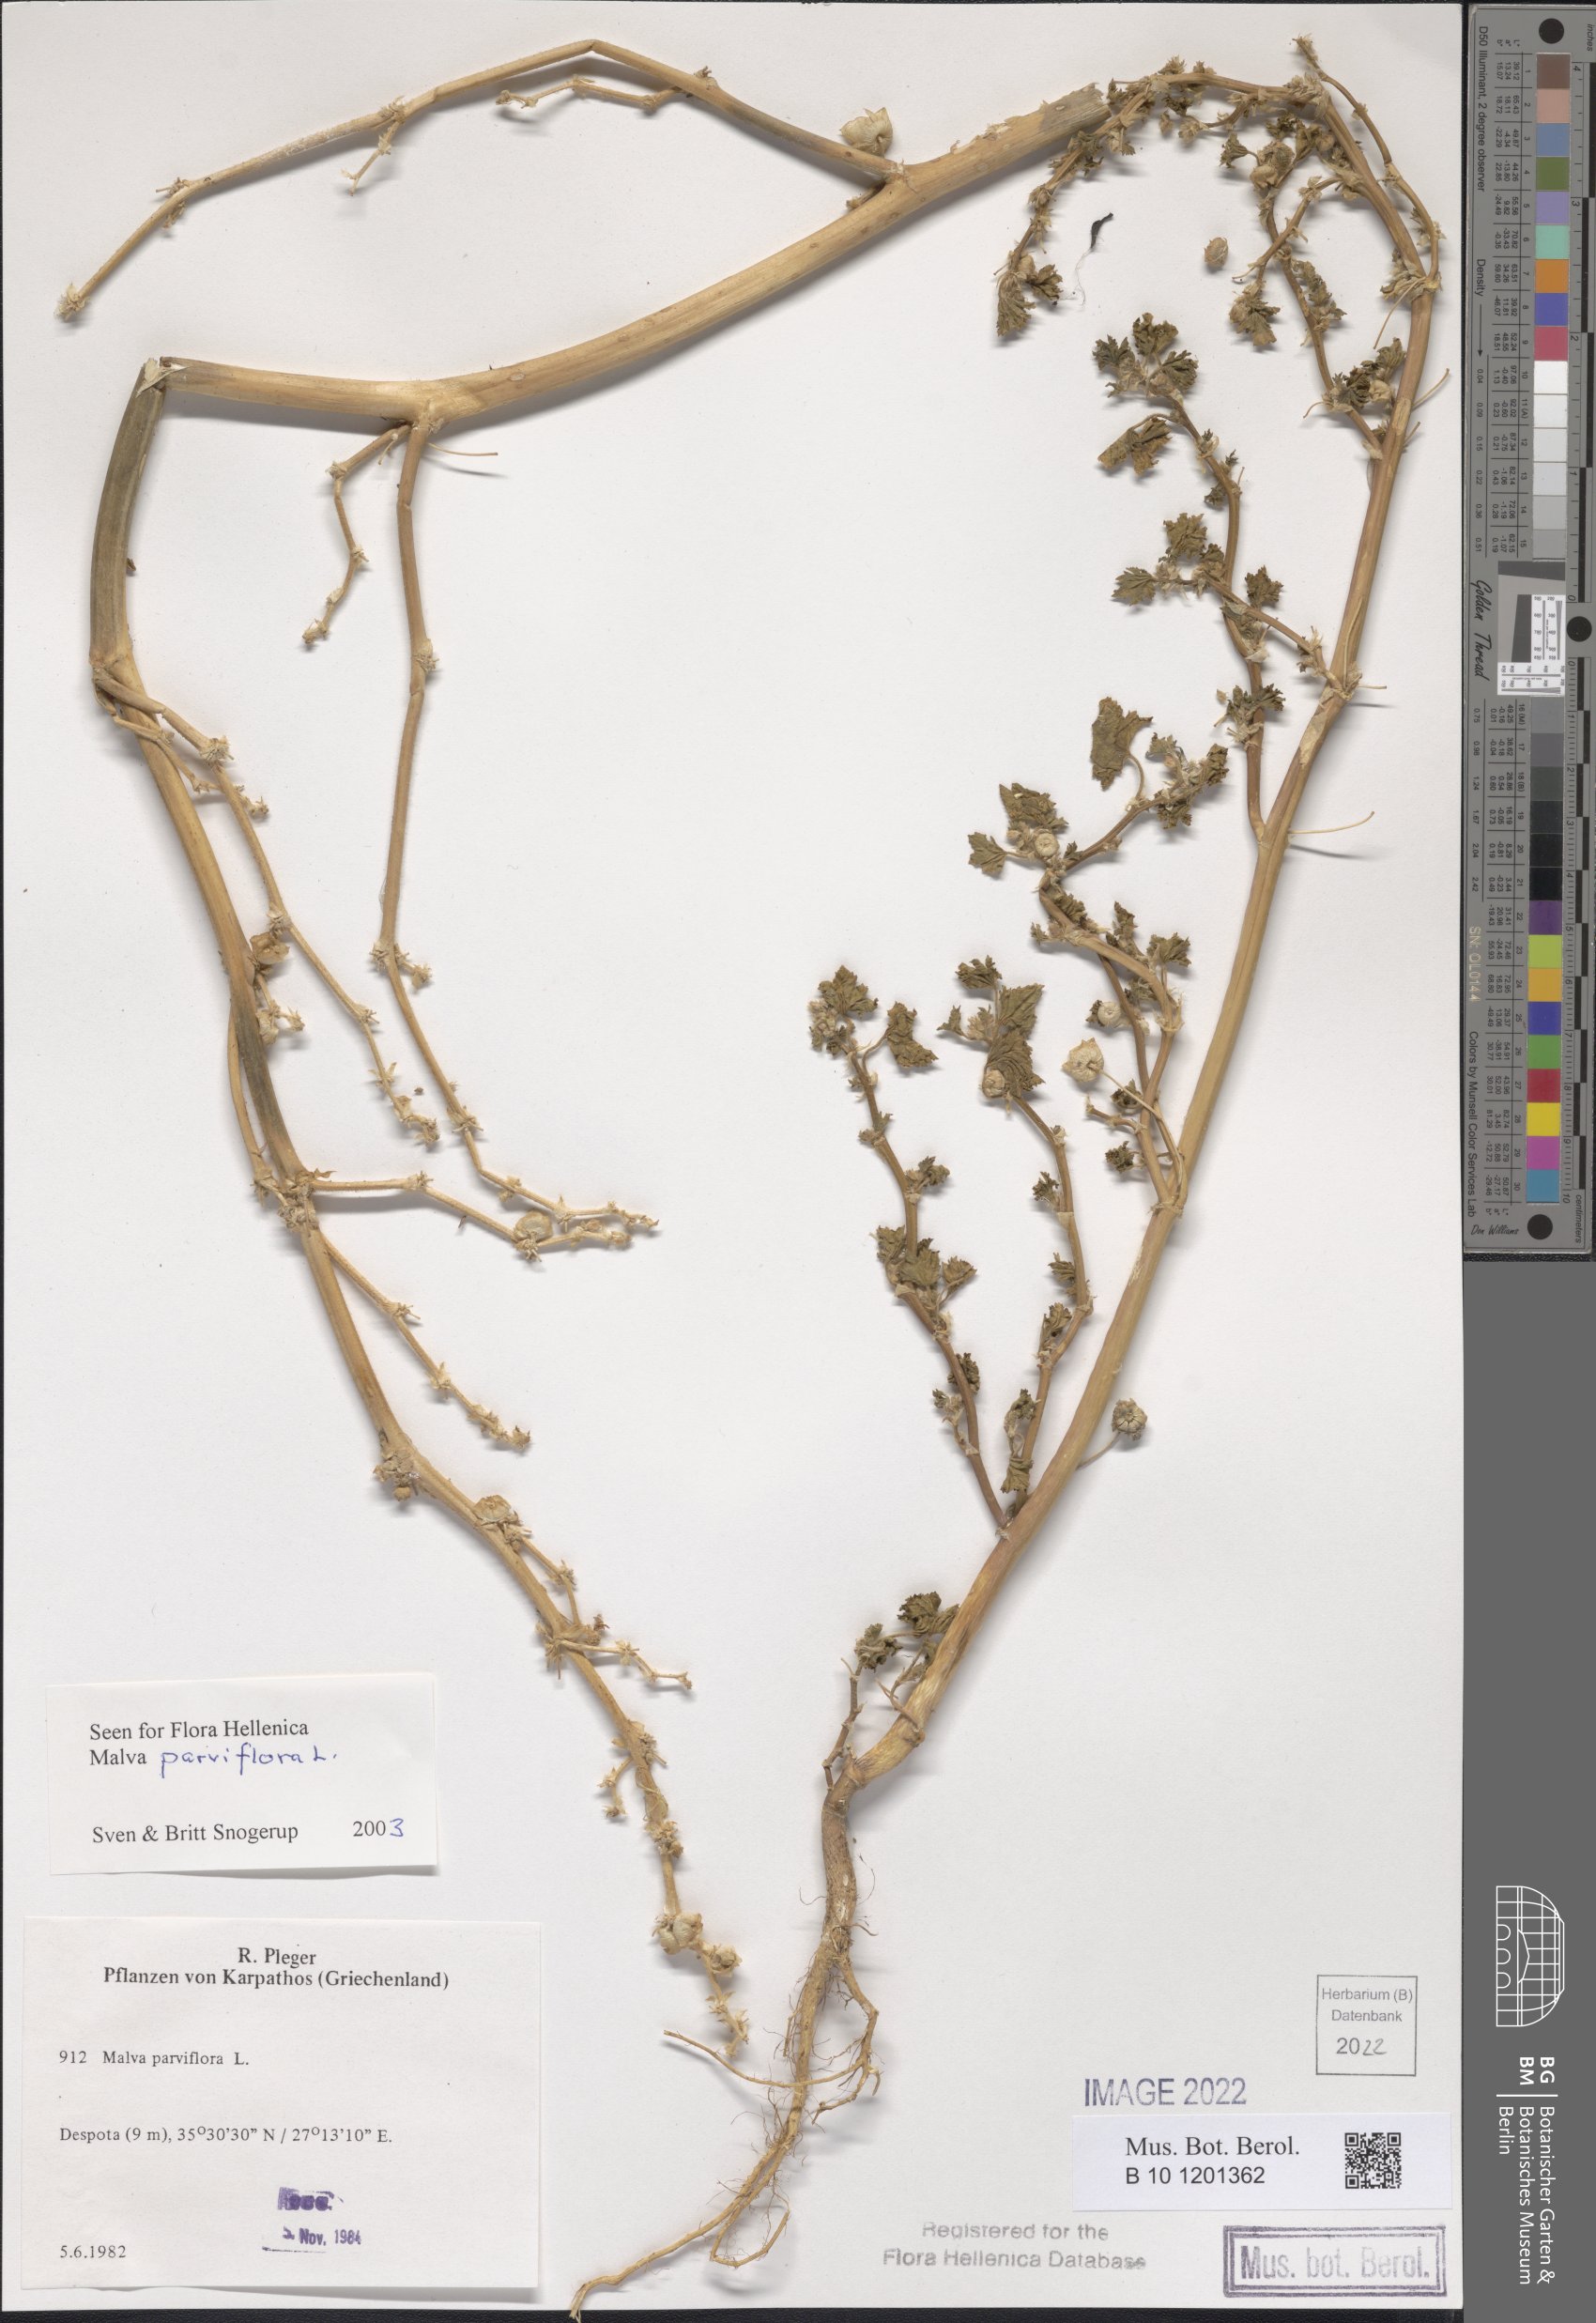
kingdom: Plantae
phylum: Tracheophyta
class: Magnoliopsida
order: Malvales
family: Malvaceae
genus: Malva
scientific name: Malva parviflora
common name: Least mallow
